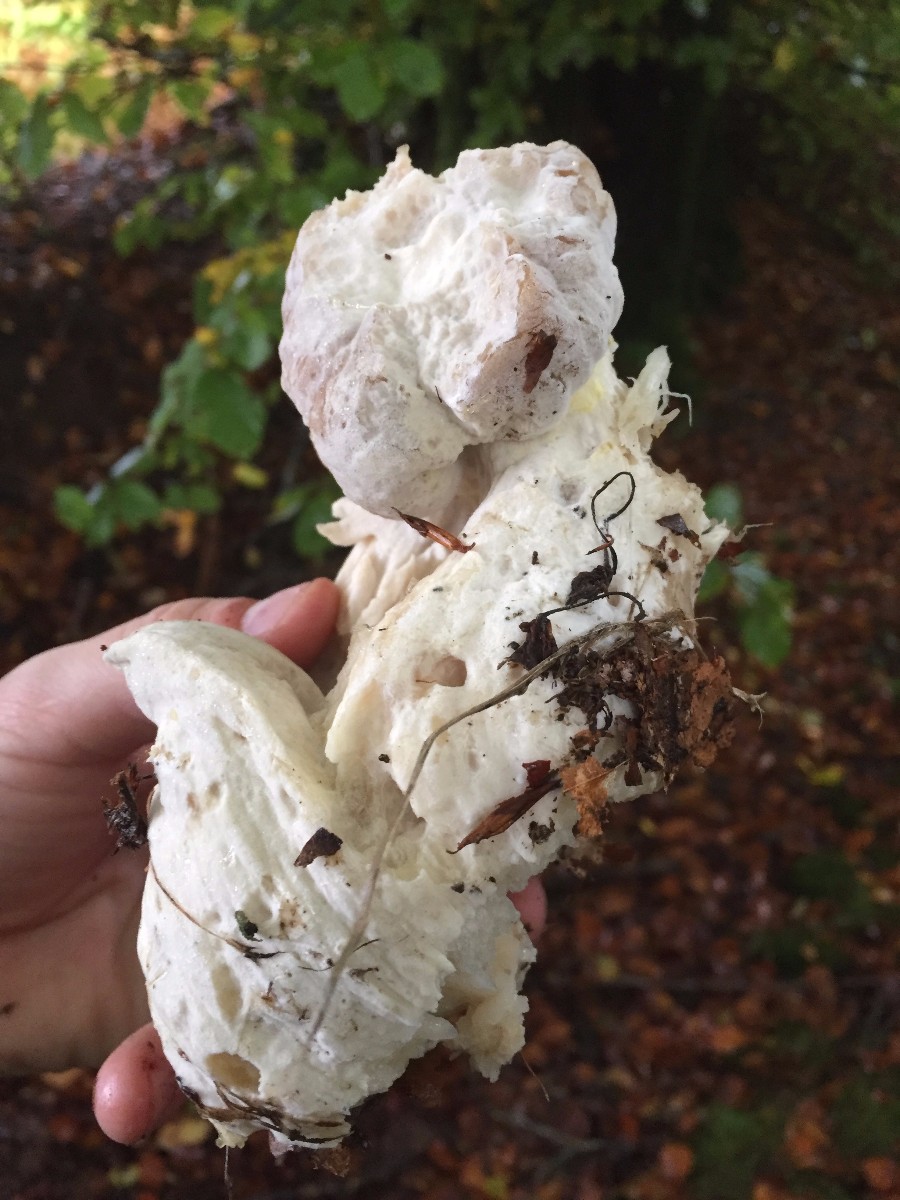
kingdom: Fungi
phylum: Ascomycota
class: Sordariomycetes
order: Hypocreales
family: Hypocreaceae
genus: Hypomyces
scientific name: Hypomyces chrysospermus
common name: gulskimmel-snylteskorpe
